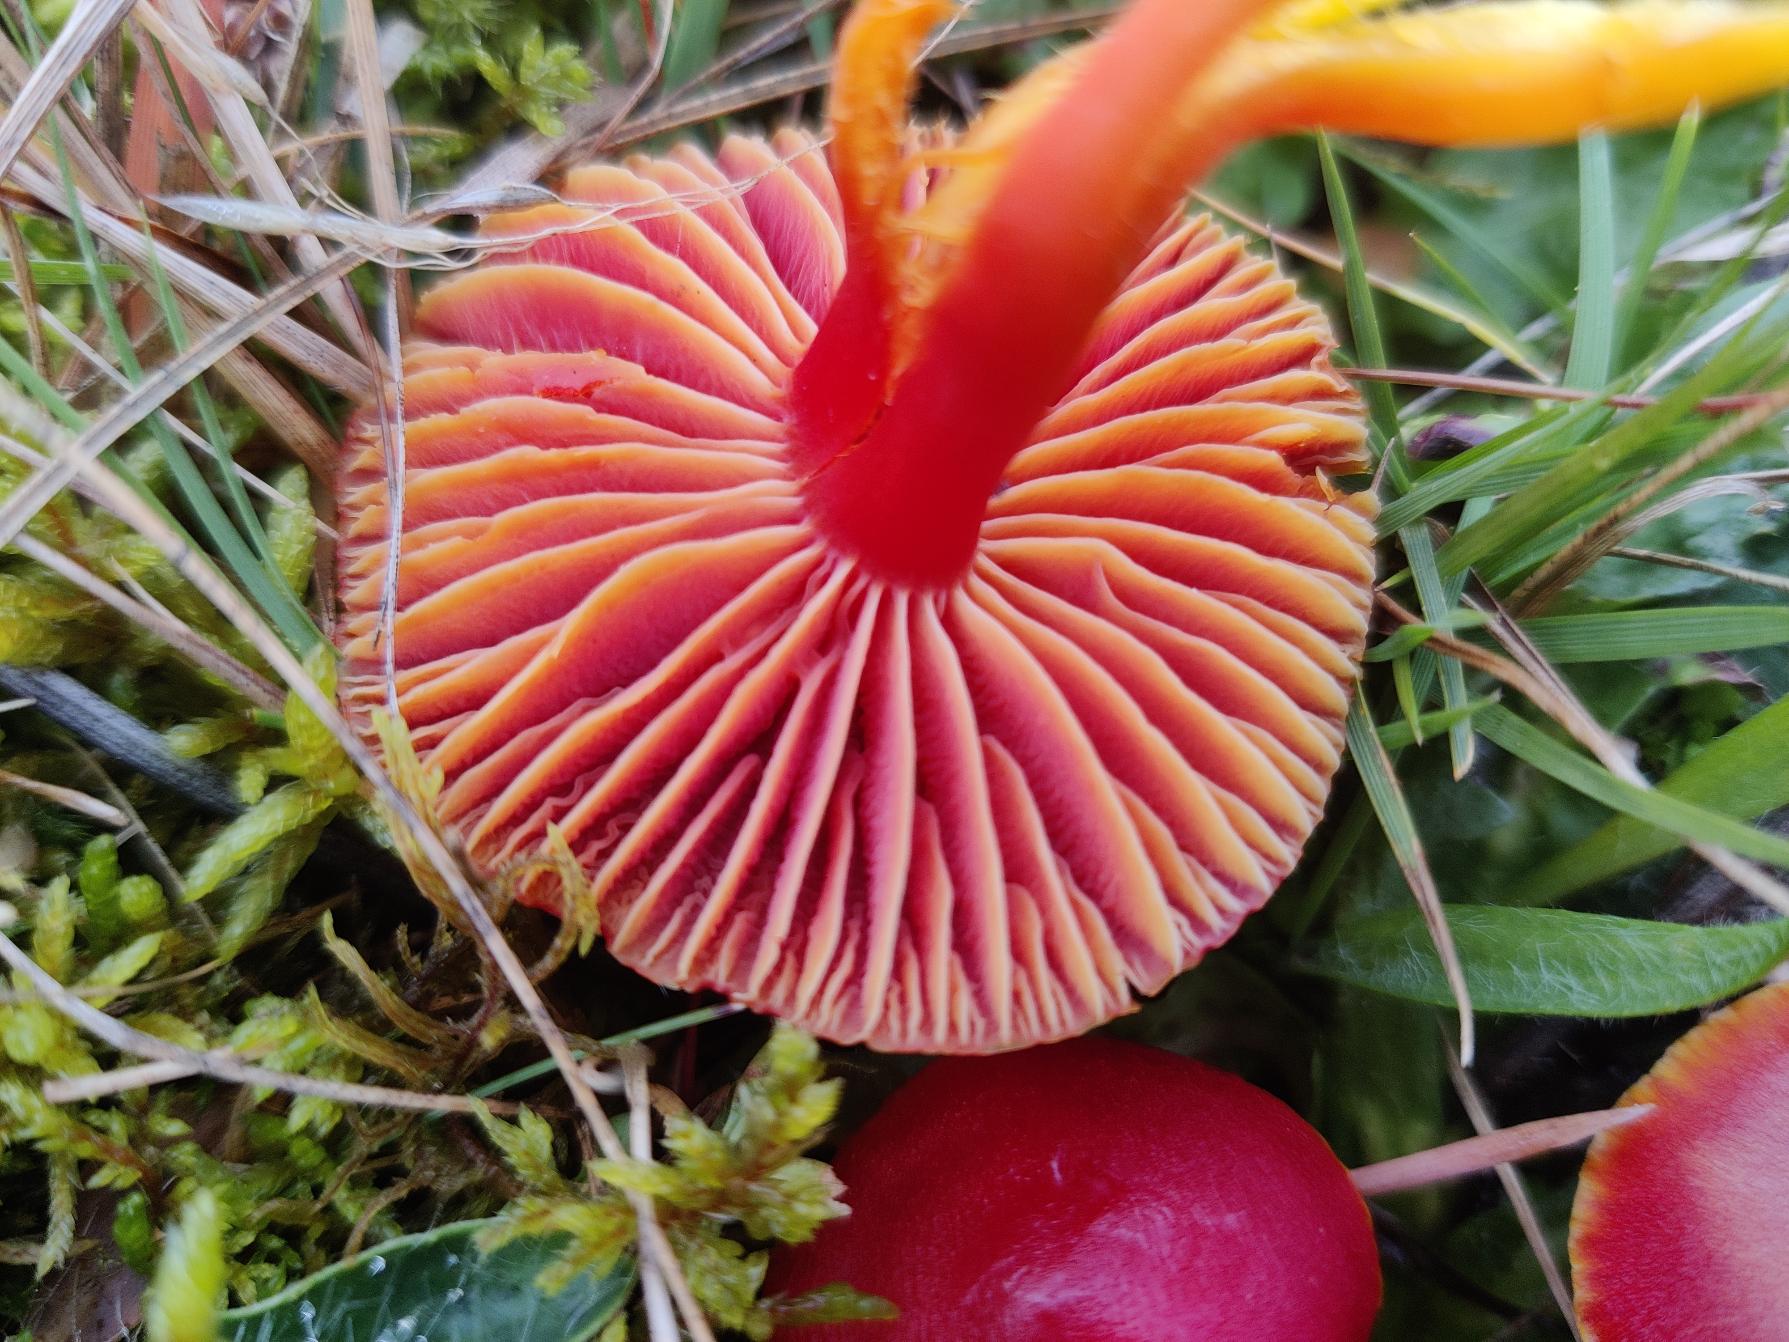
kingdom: Fungi
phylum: Basidiomycota
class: Agaricomycetes
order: Agaricales
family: Hygrophoraceae
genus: Hygrocybe
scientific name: Hygrocybe coccinea
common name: Cinnober-vokshat
